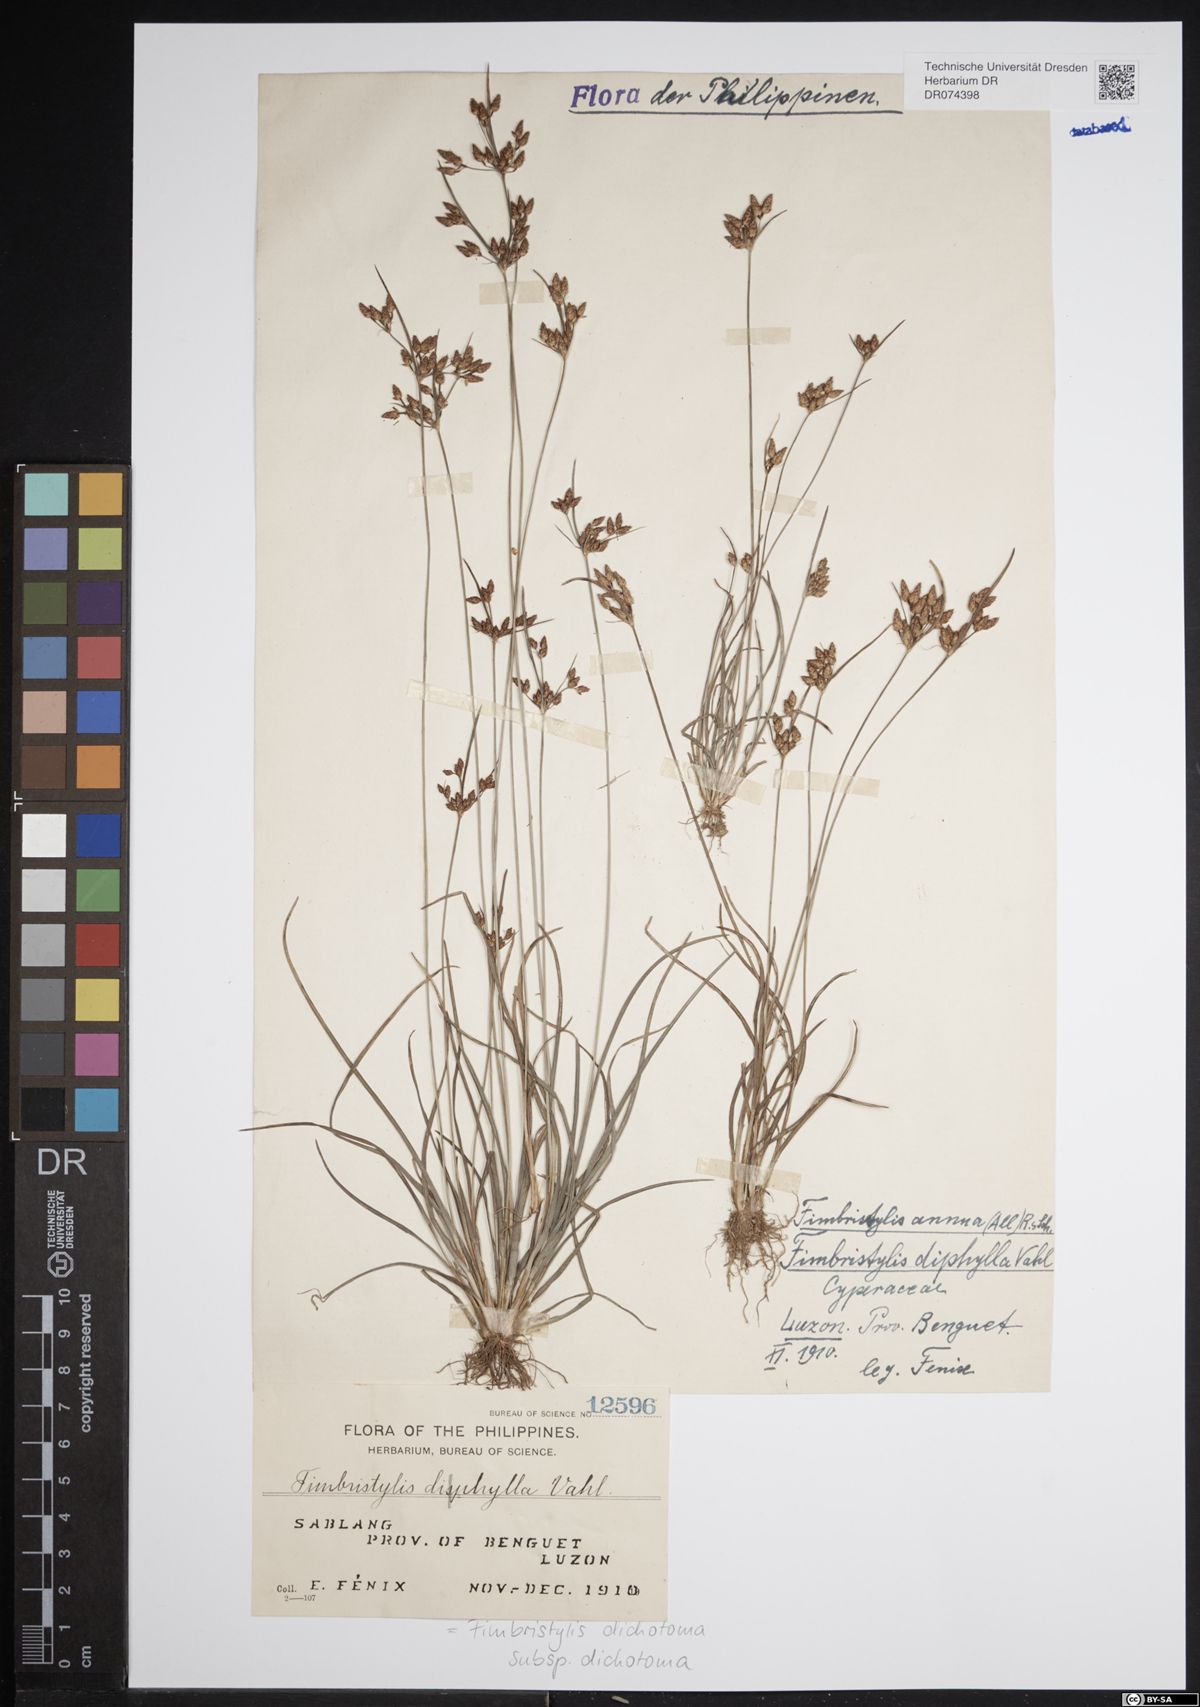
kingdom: Plantae
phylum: Tracheophyta
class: Liliopsida
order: Poales
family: Cyperaceae
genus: Fimbristylis
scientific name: Fimbristylis dichotoma
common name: Forked fimbry
